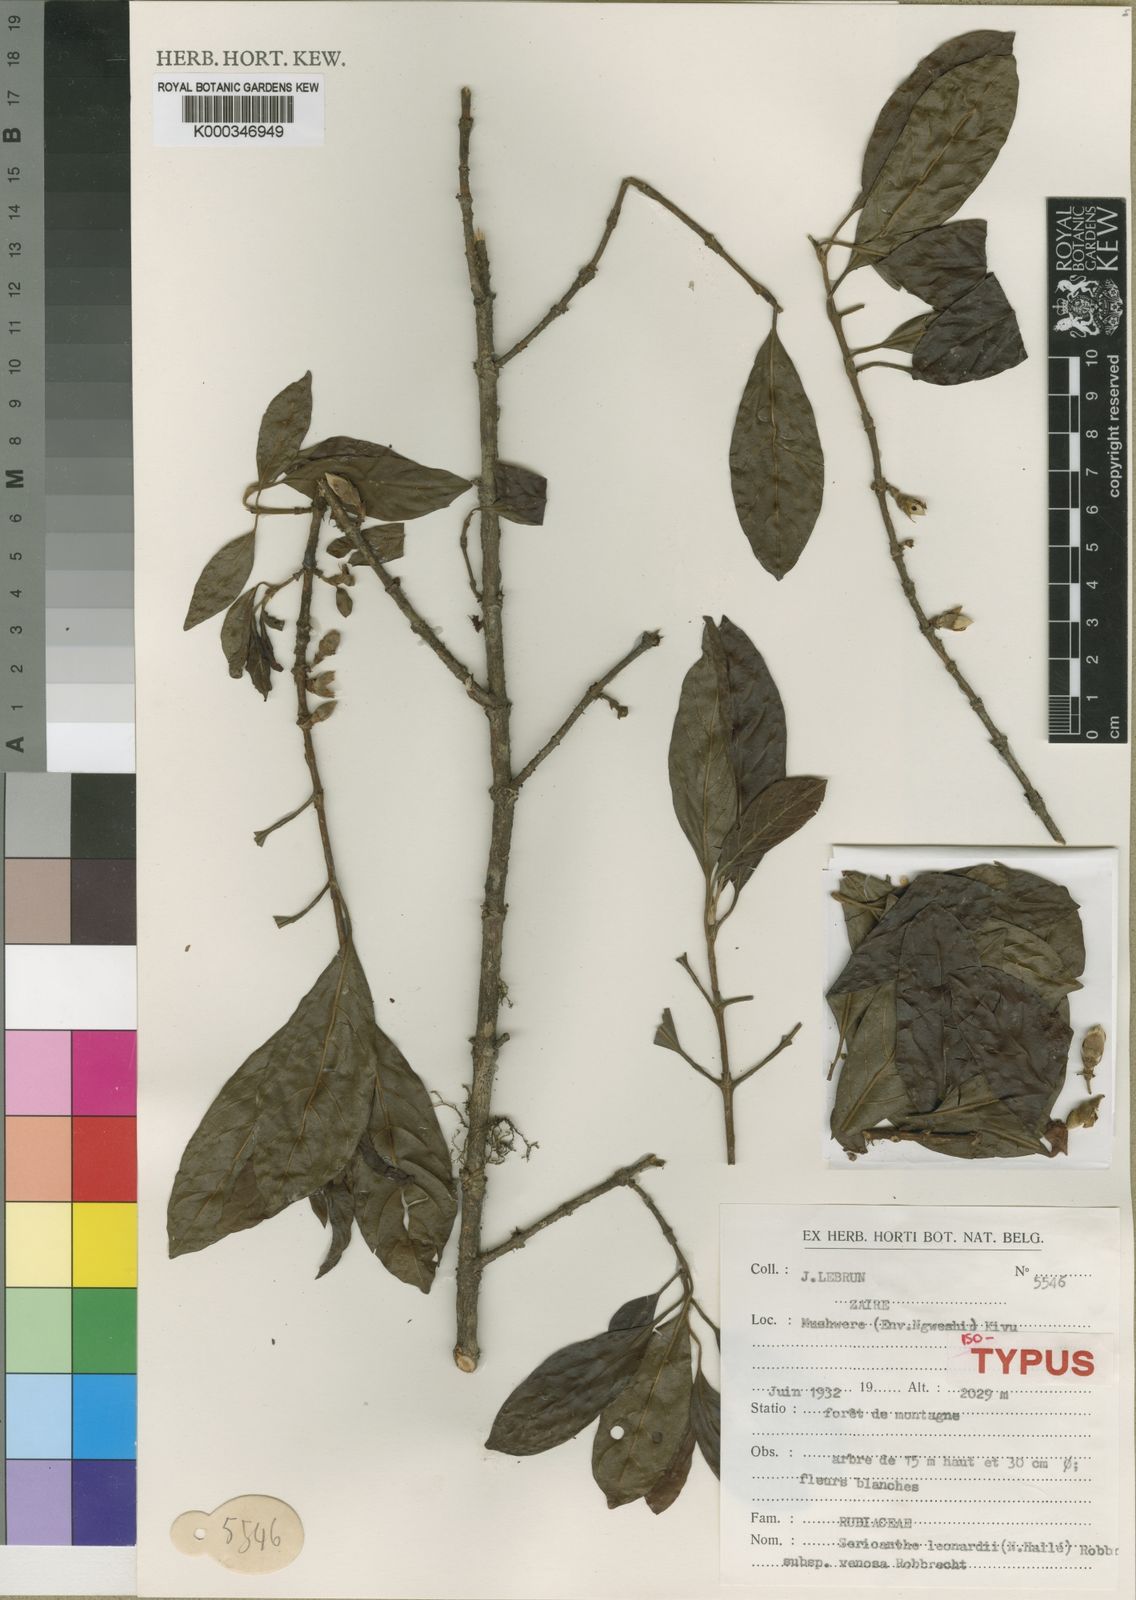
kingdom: Plantae
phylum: Tracheophyta
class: Magnoliopsida
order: Gentianales
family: Rubiaceae
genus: Sericanthe
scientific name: Sericanthe
